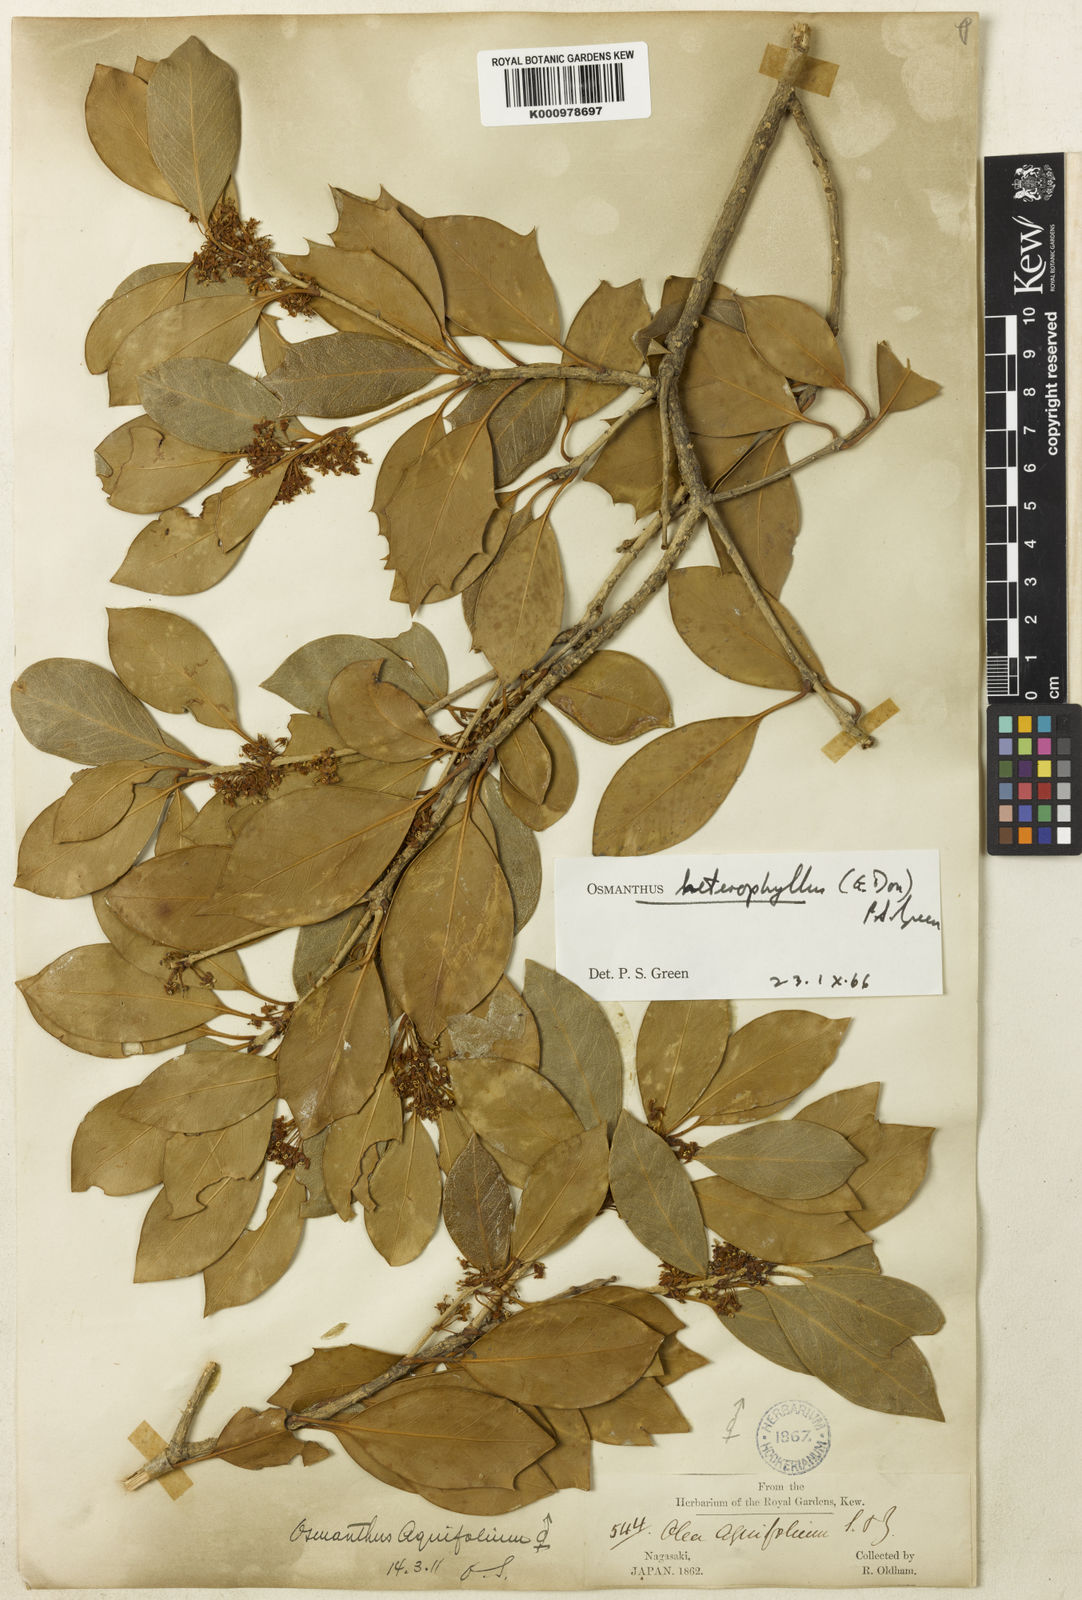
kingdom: Plantae
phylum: Tracheophyta
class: Magnoliopsida
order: Lamiales
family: Oleaceae
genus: Osmanthus
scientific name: Osmanthus heterophyllus
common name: Holly osmanthus
